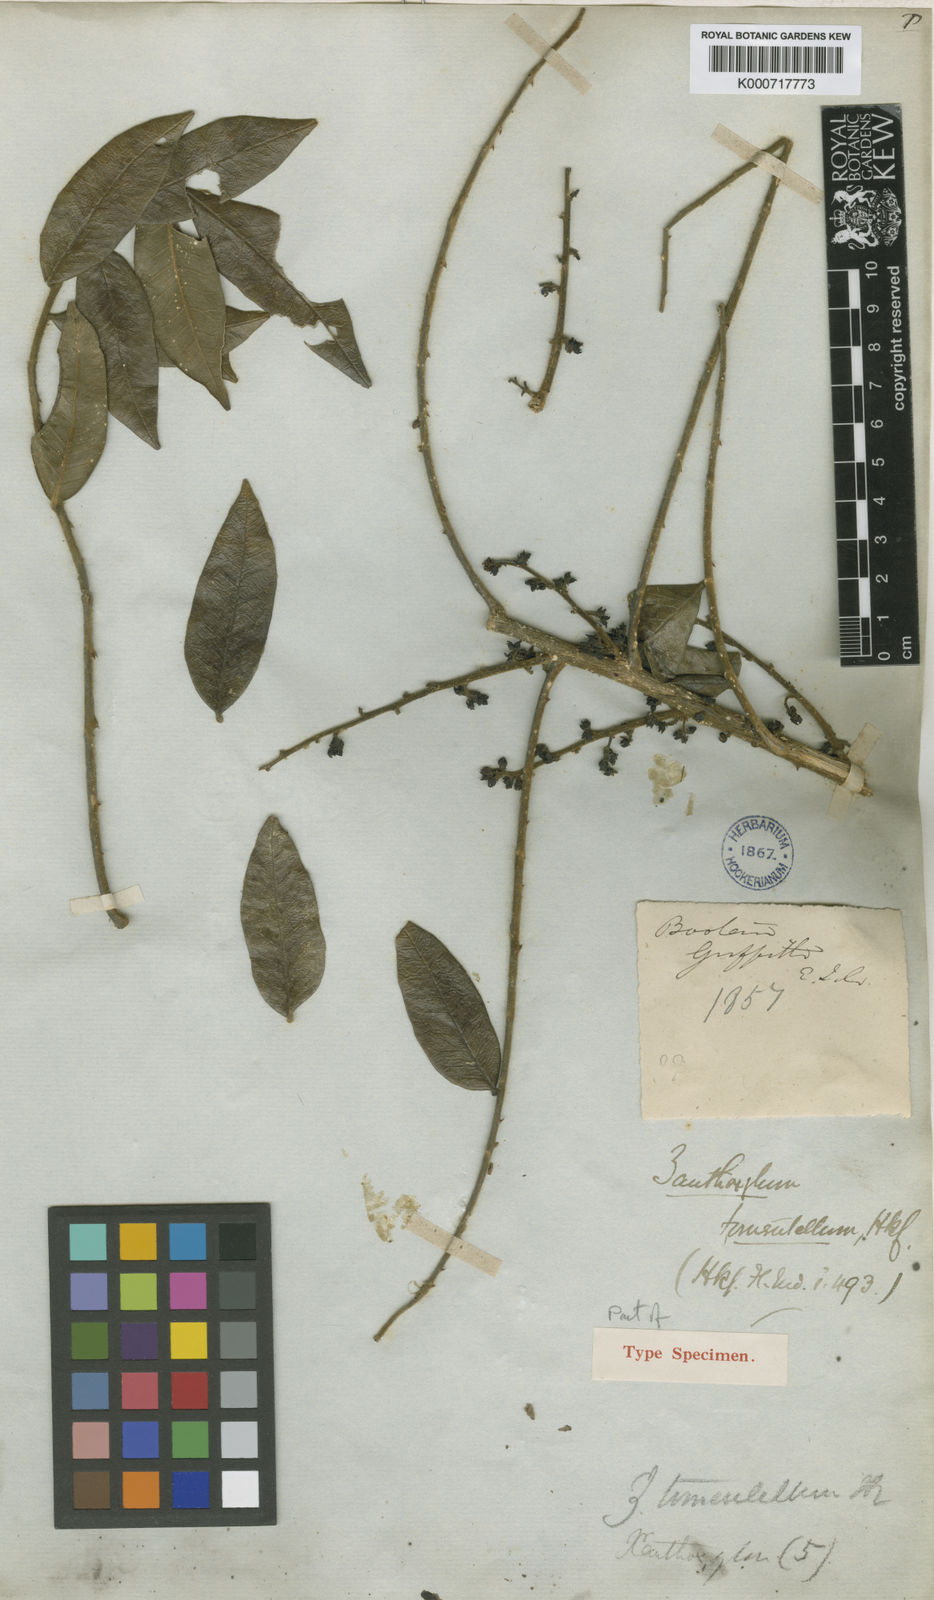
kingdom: Plantae
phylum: Tracheophyta
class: Magnoliopsida
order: Sapindales
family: Rutaceae
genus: Zanthoxylum
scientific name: Zanthoxylum tomentellum
